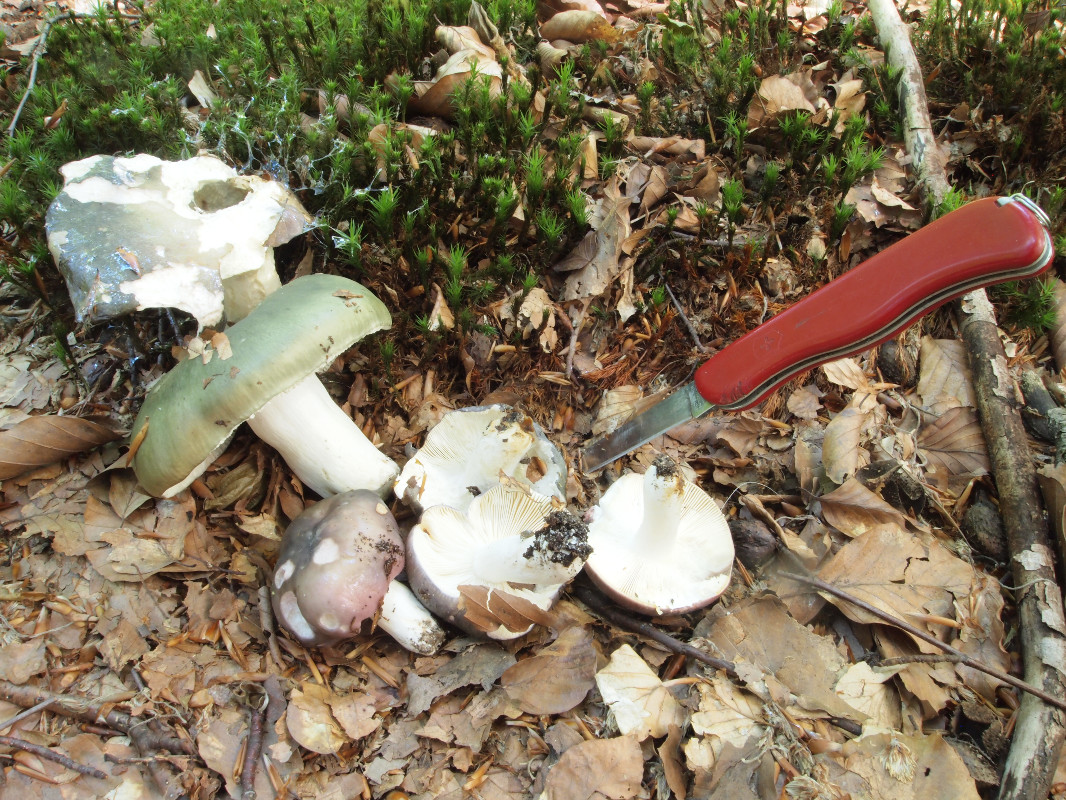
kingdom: Fungi
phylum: Basidiomycota
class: Agaricomycetes
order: Russulales
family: Russulaceae
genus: Russula
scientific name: Russula cyanoxantha
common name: broget skørhat
